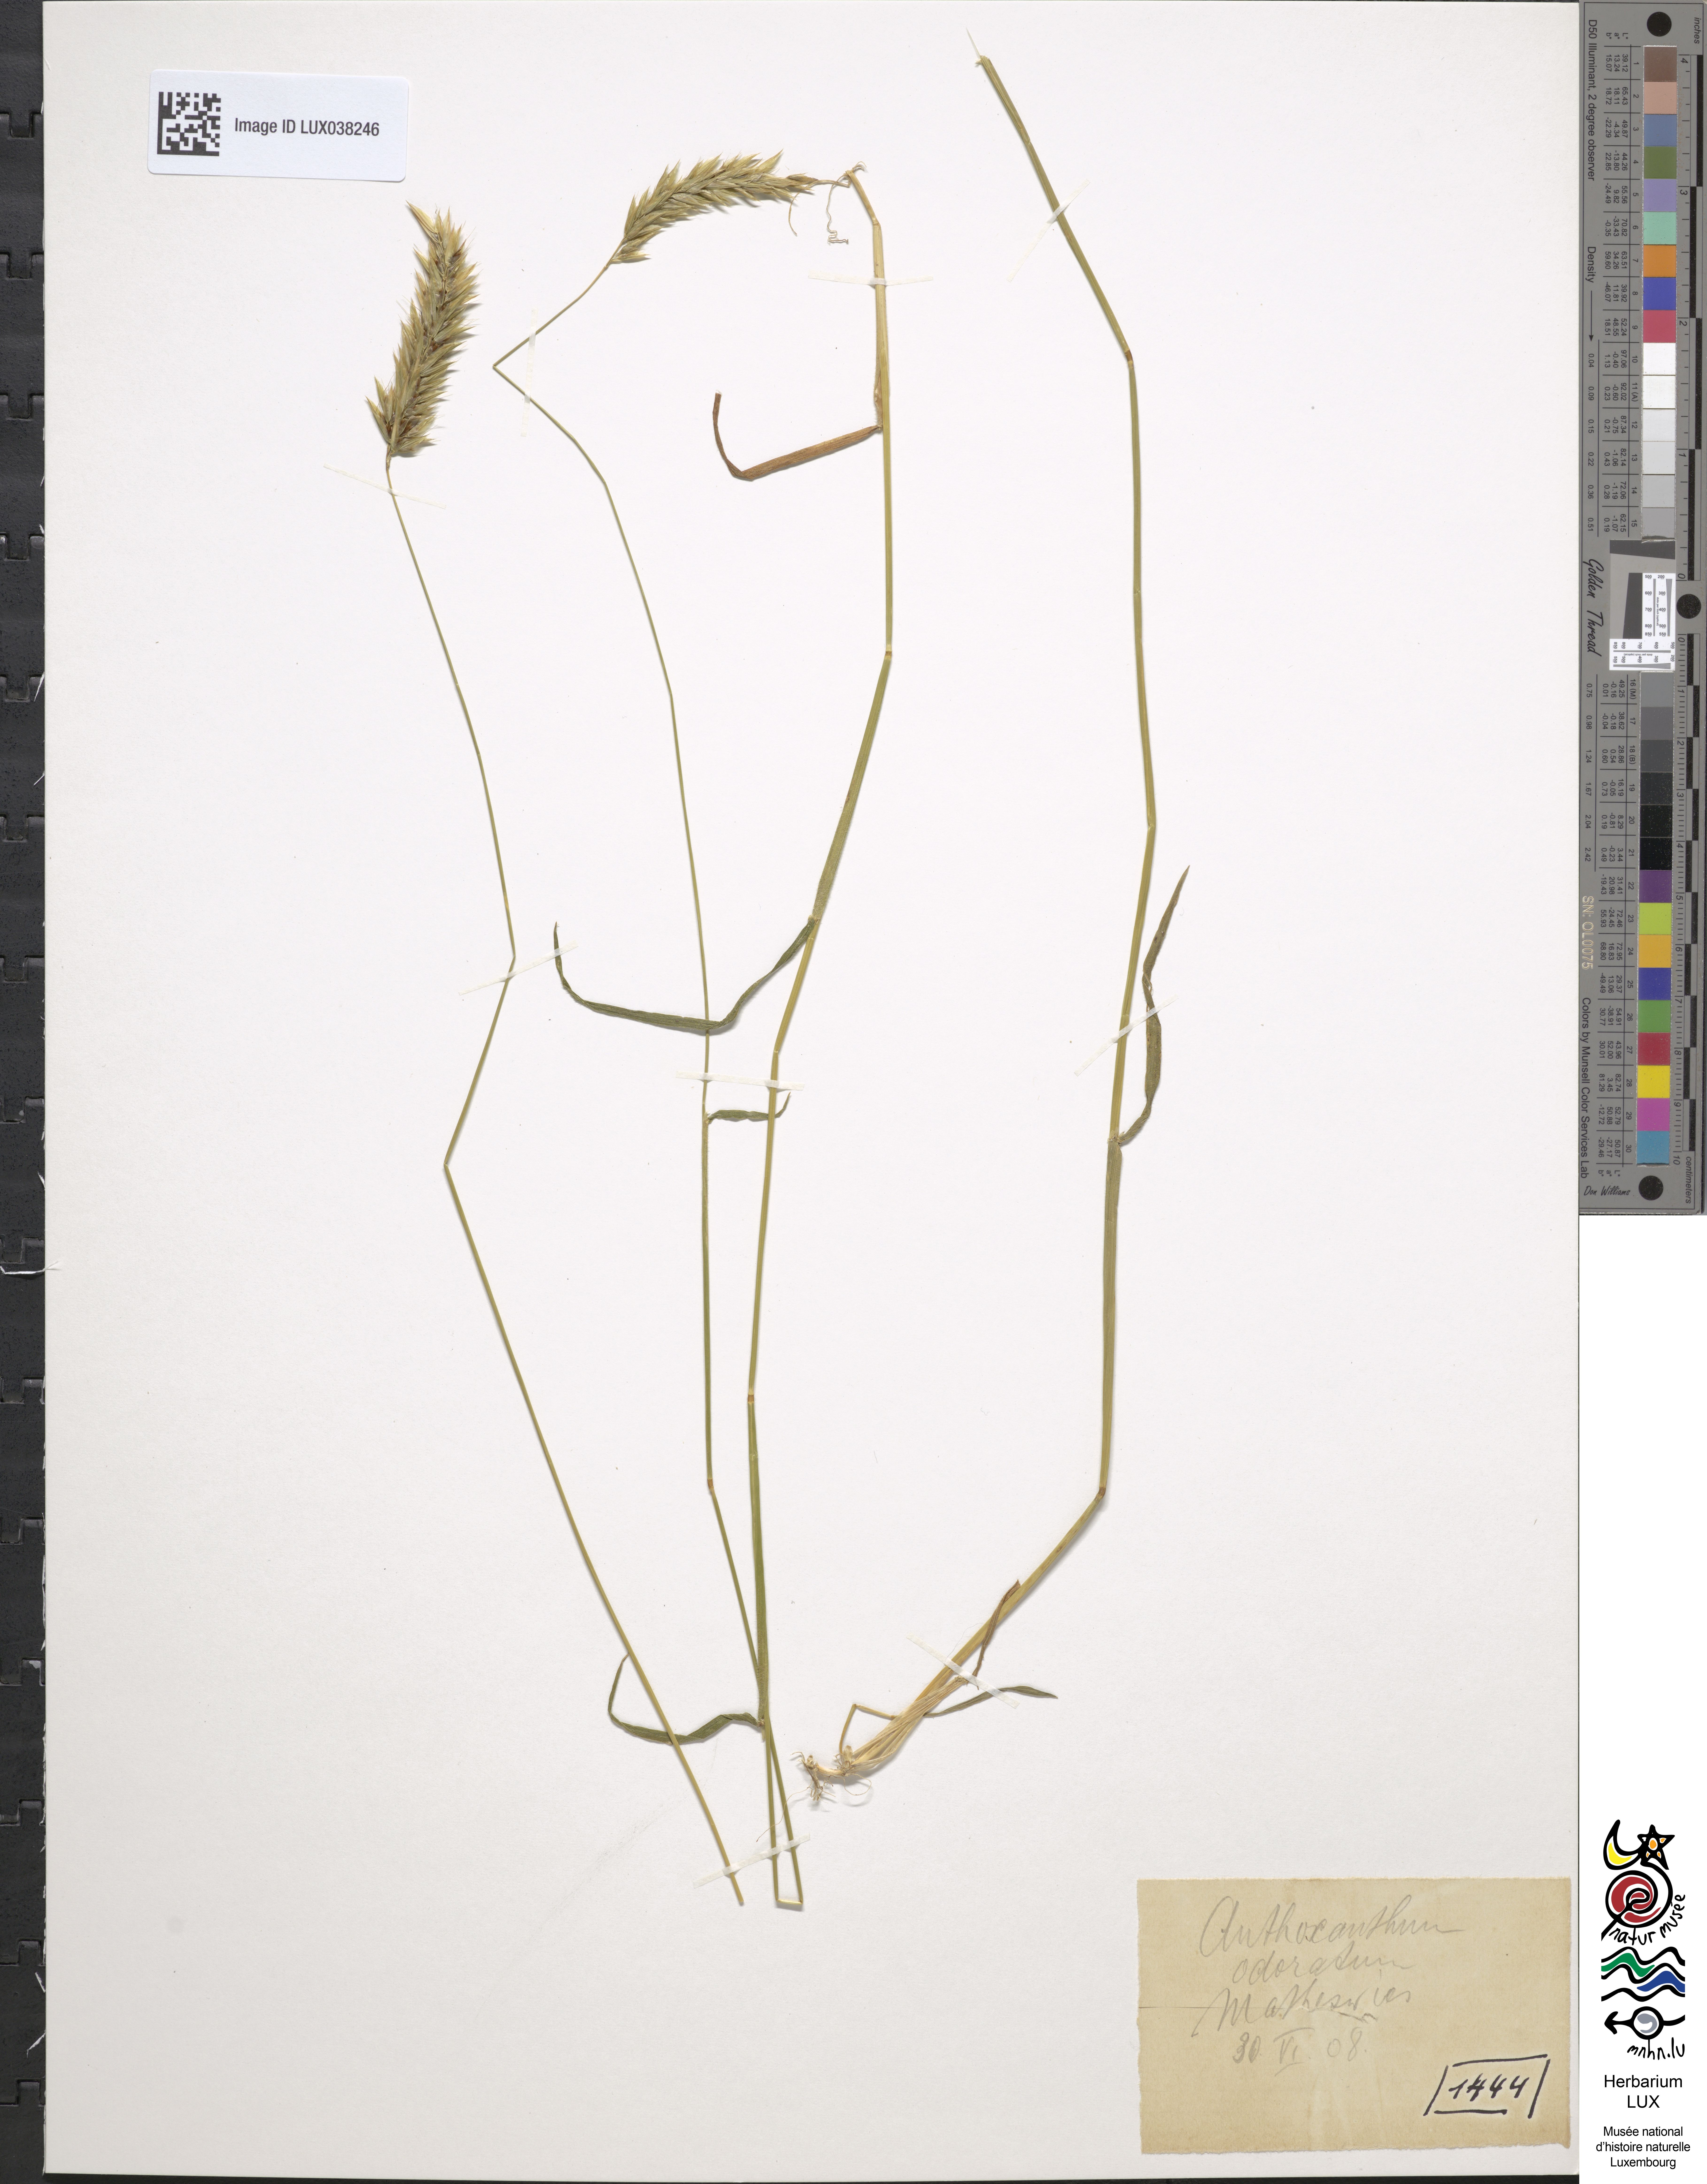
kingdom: Plantae
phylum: Tracheophyta
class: Liliopsida
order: Poales
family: Poaceae
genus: Anthoxanthum
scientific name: Anthoxanthum odoratum
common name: Sweet vernalgrass
